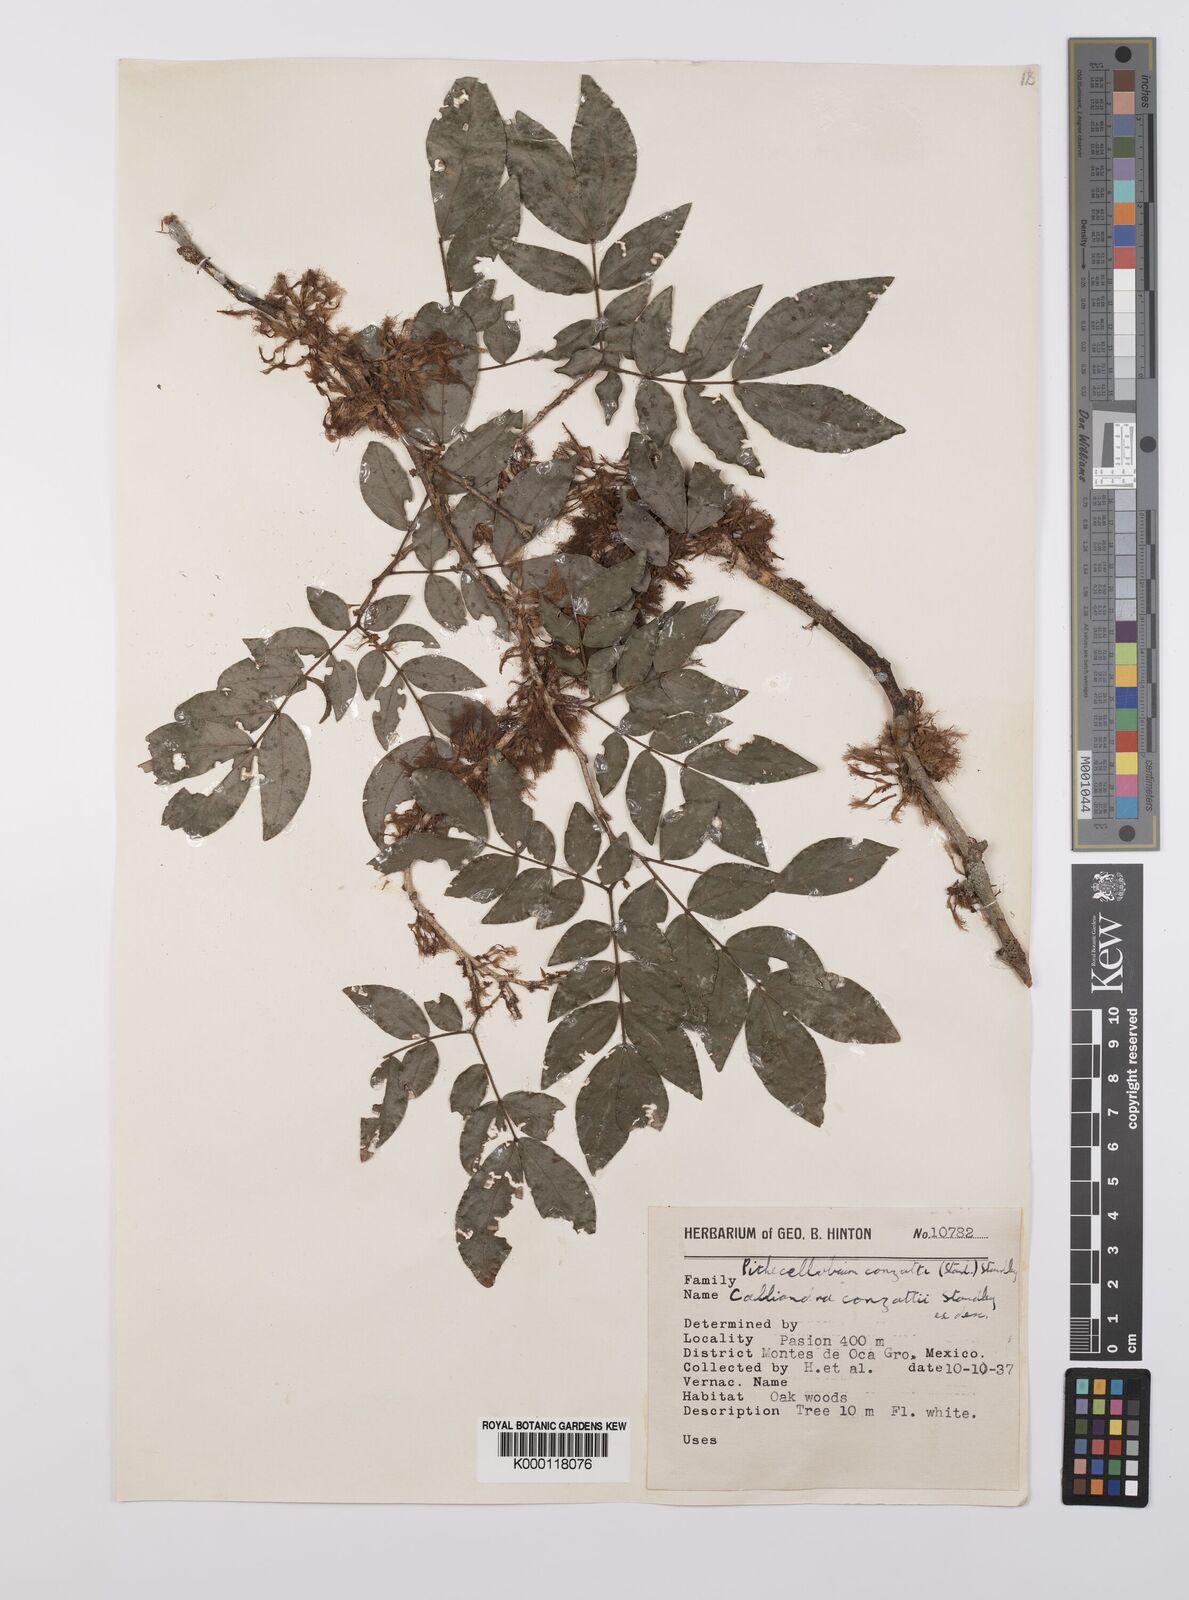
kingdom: Plantae
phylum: Tracheophyta
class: Magnoliopsida
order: Fabales
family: Fabaceae
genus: Zygia
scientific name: Zygia conzattii
